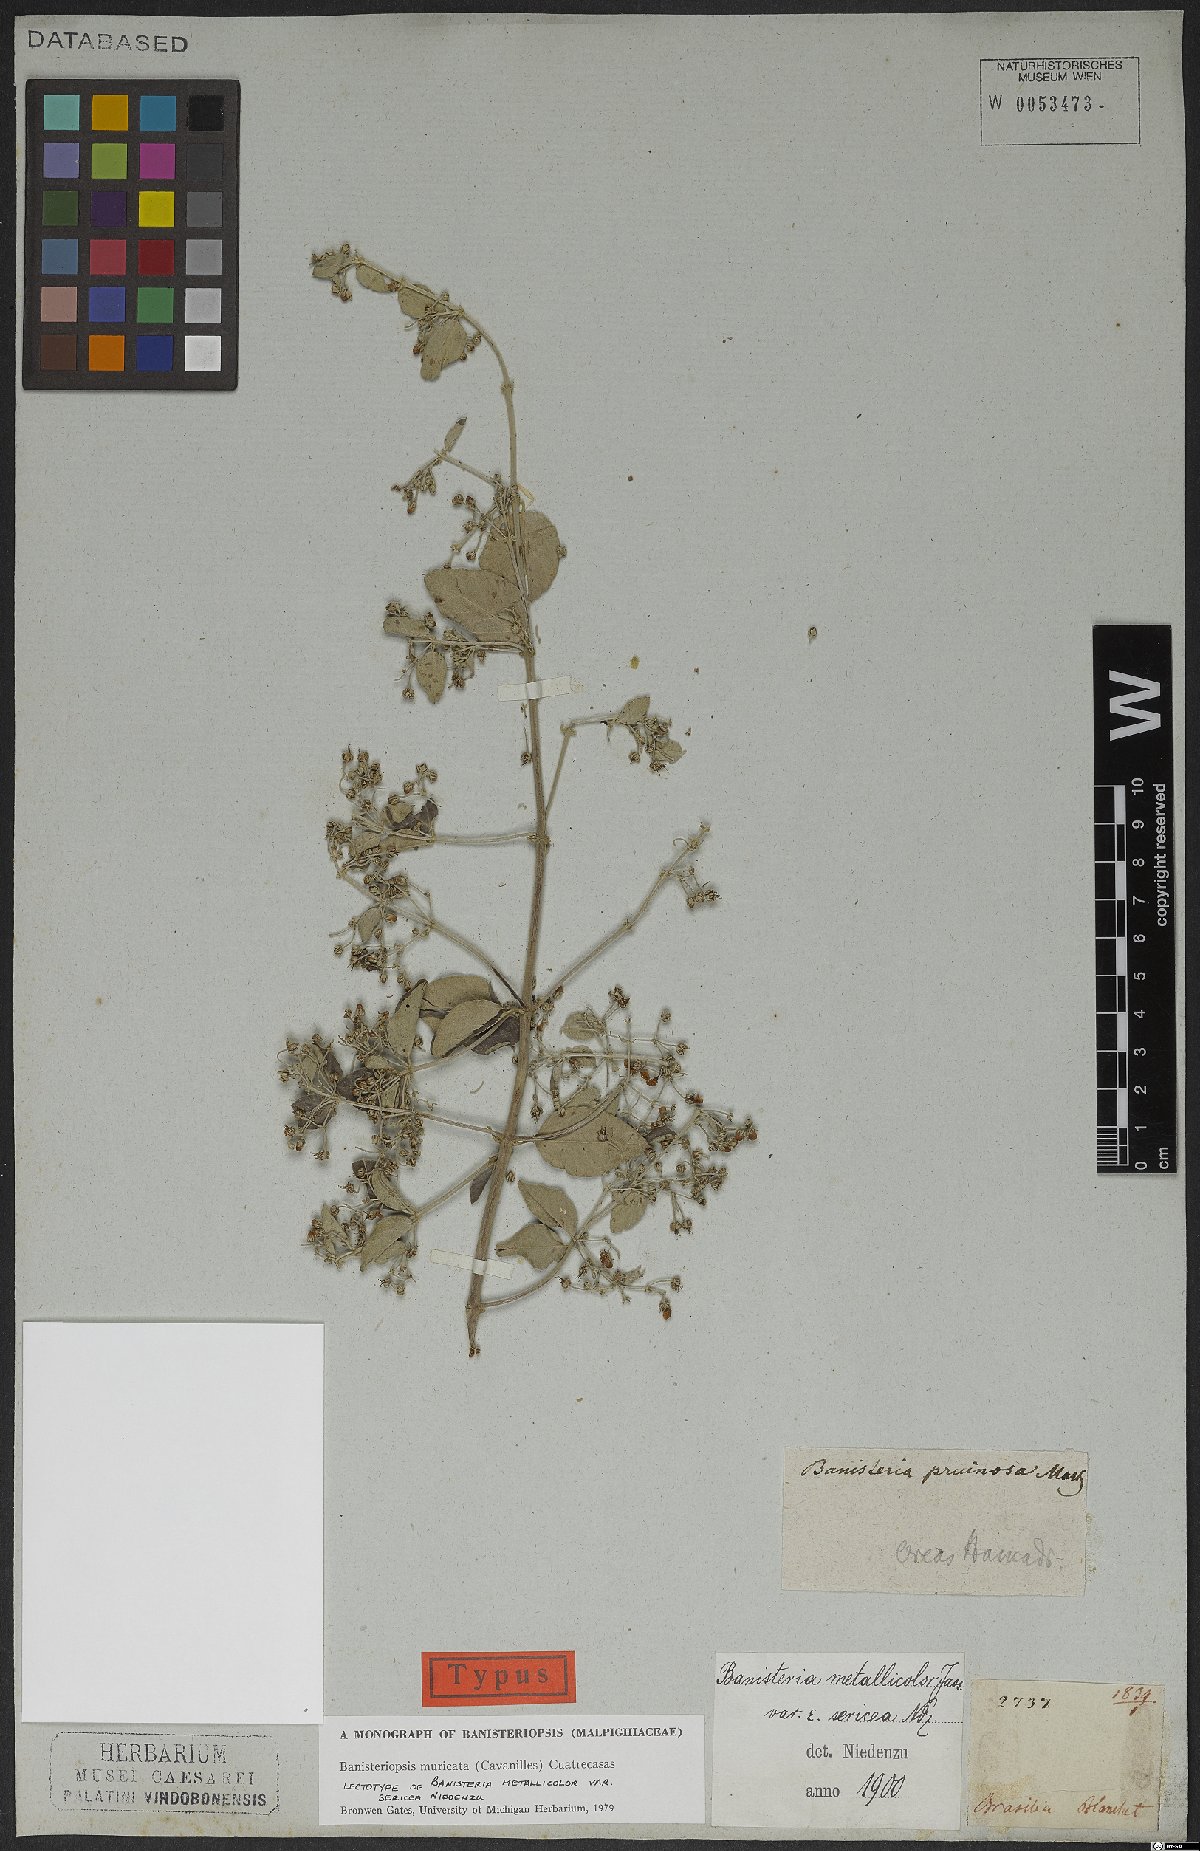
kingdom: Plantae
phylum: Tracheophyta
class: Magnoliopsida
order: Malpighiales
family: Malpighiaceae
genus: Banisteriopsis
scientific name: Banisteriopsis muricata
